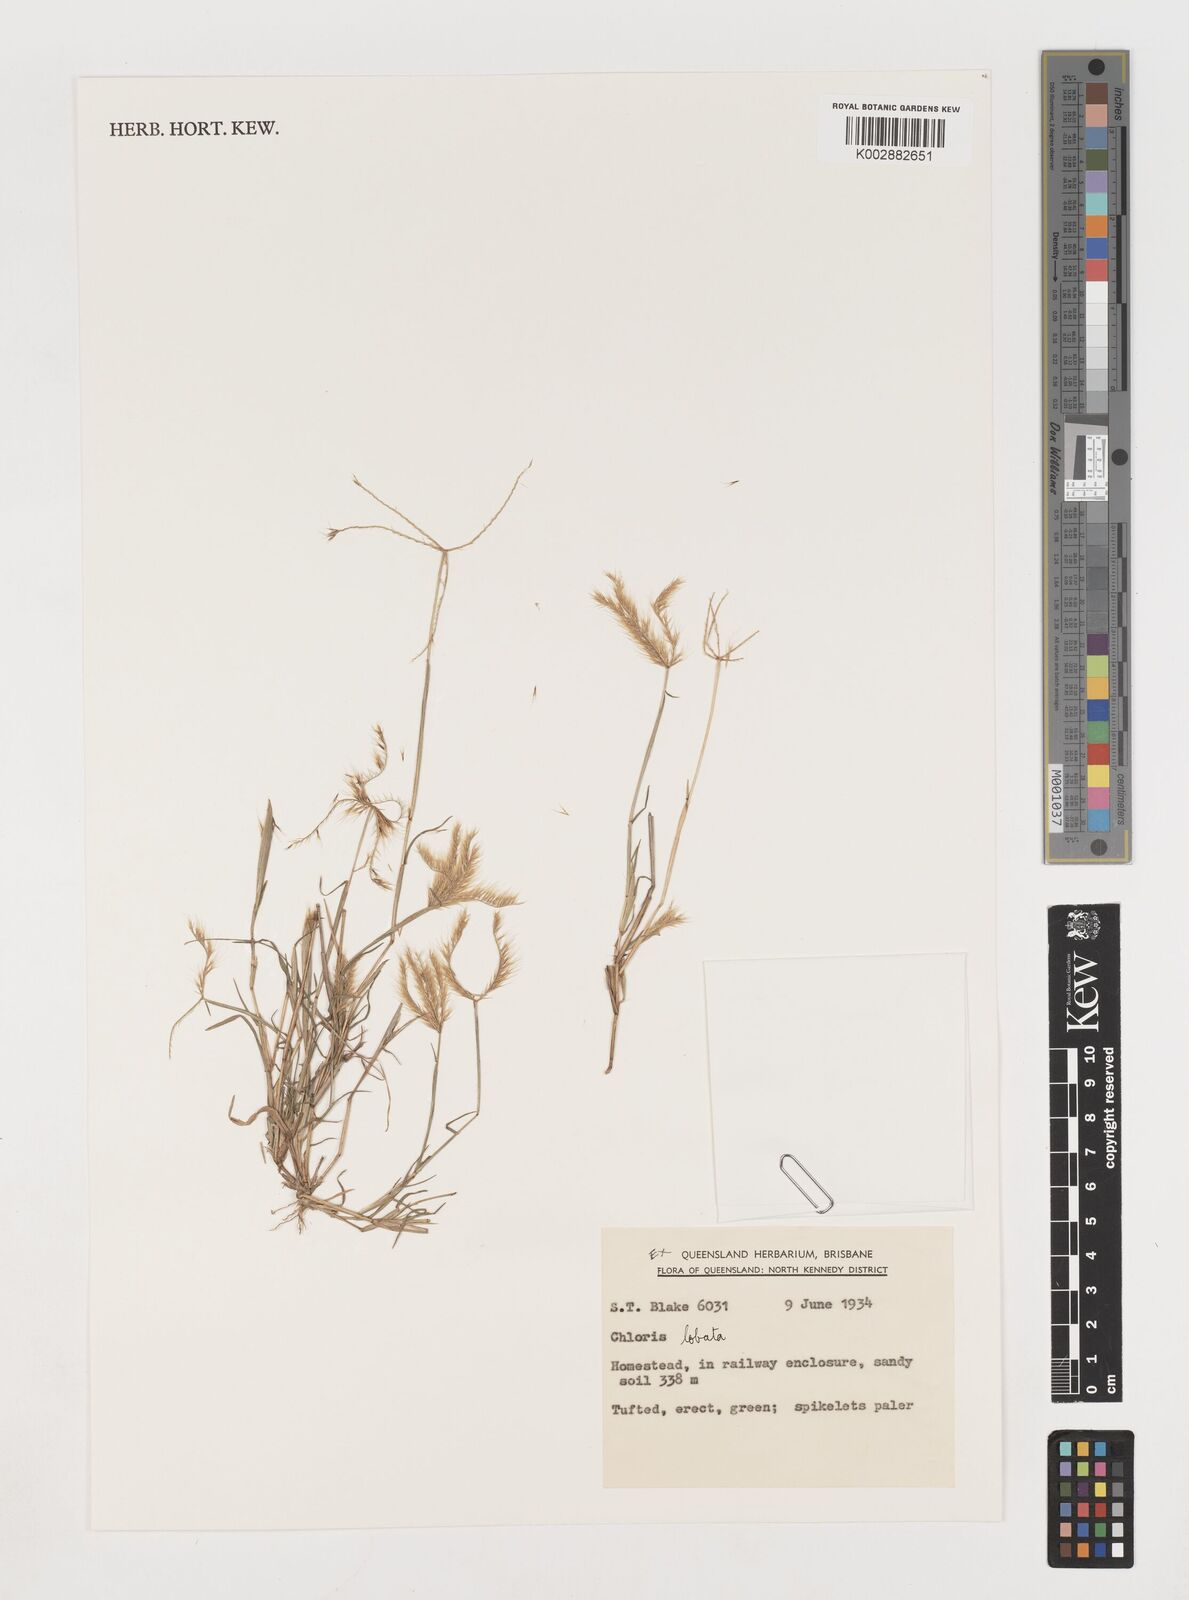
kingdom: Plantae
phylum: Tracheophyta
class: Liliopsida
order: Poales
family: Poaceae
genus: Chloris
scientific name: Chloris lobata
